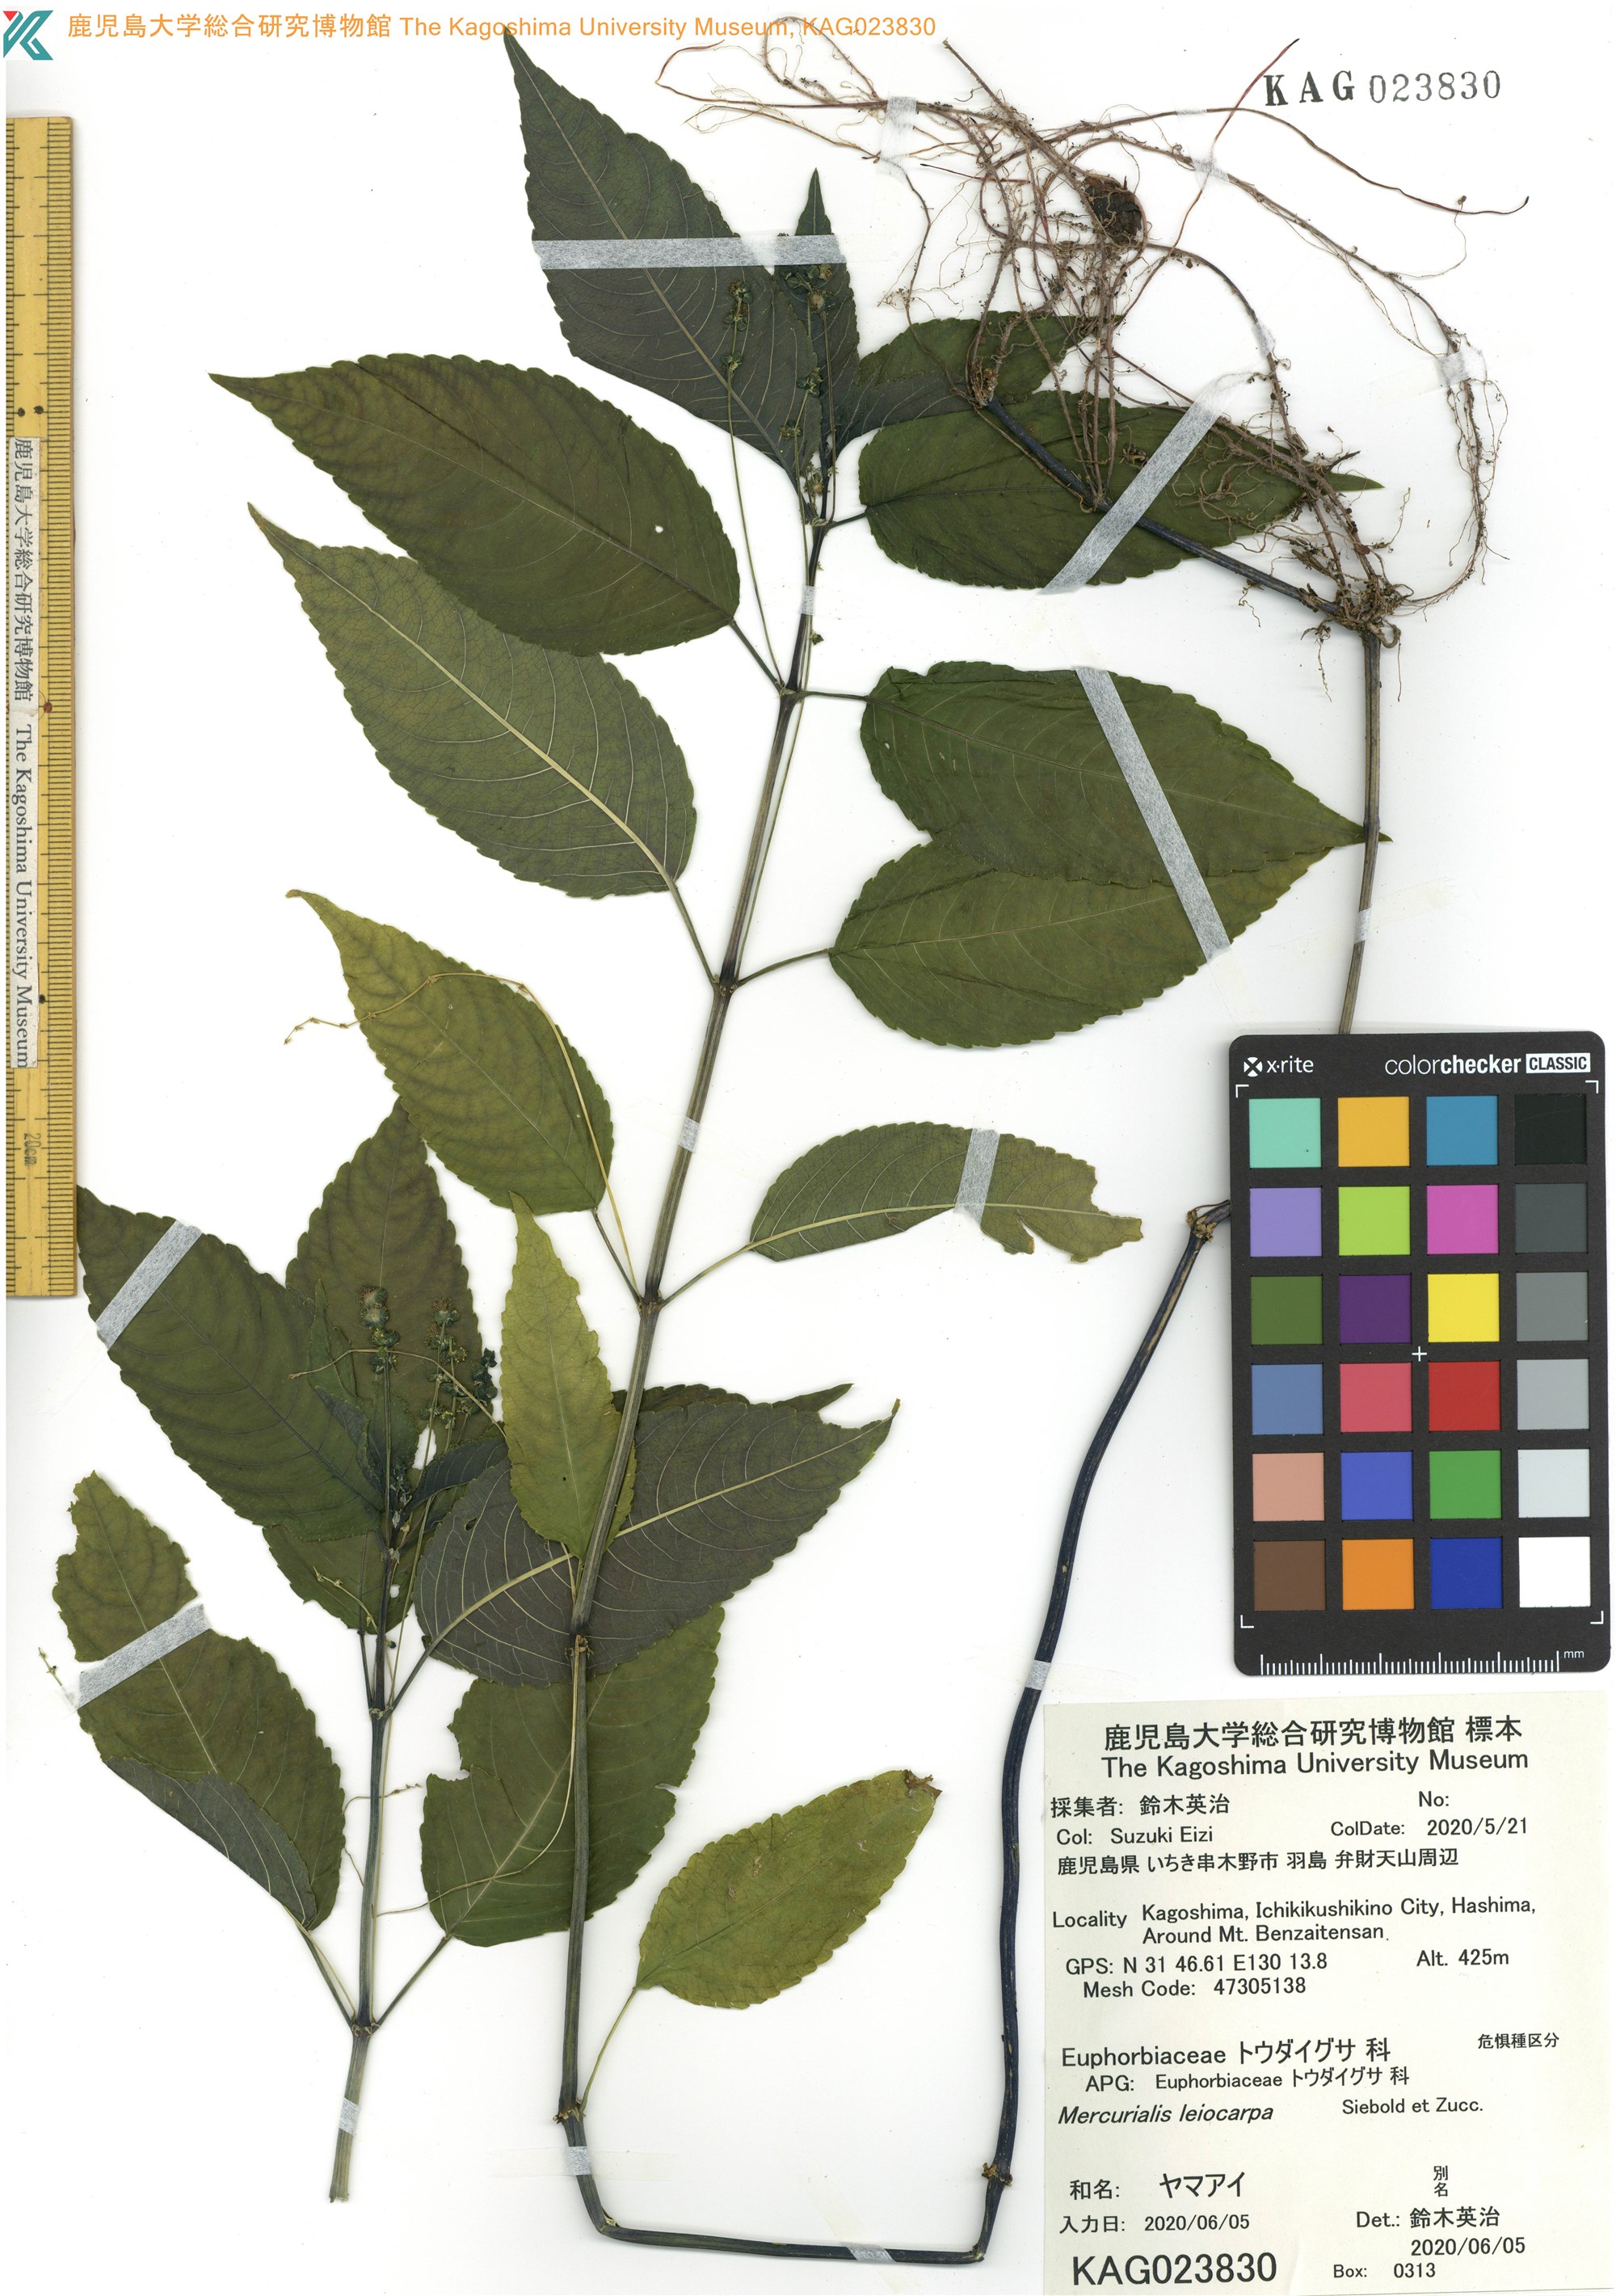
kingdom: Plantae
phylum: Tracheophyta
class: Magnoliopsida
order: Malpighiales
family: Euphorbiaceae
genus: Mercurialis
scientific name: Mercurialis leiocarpa
